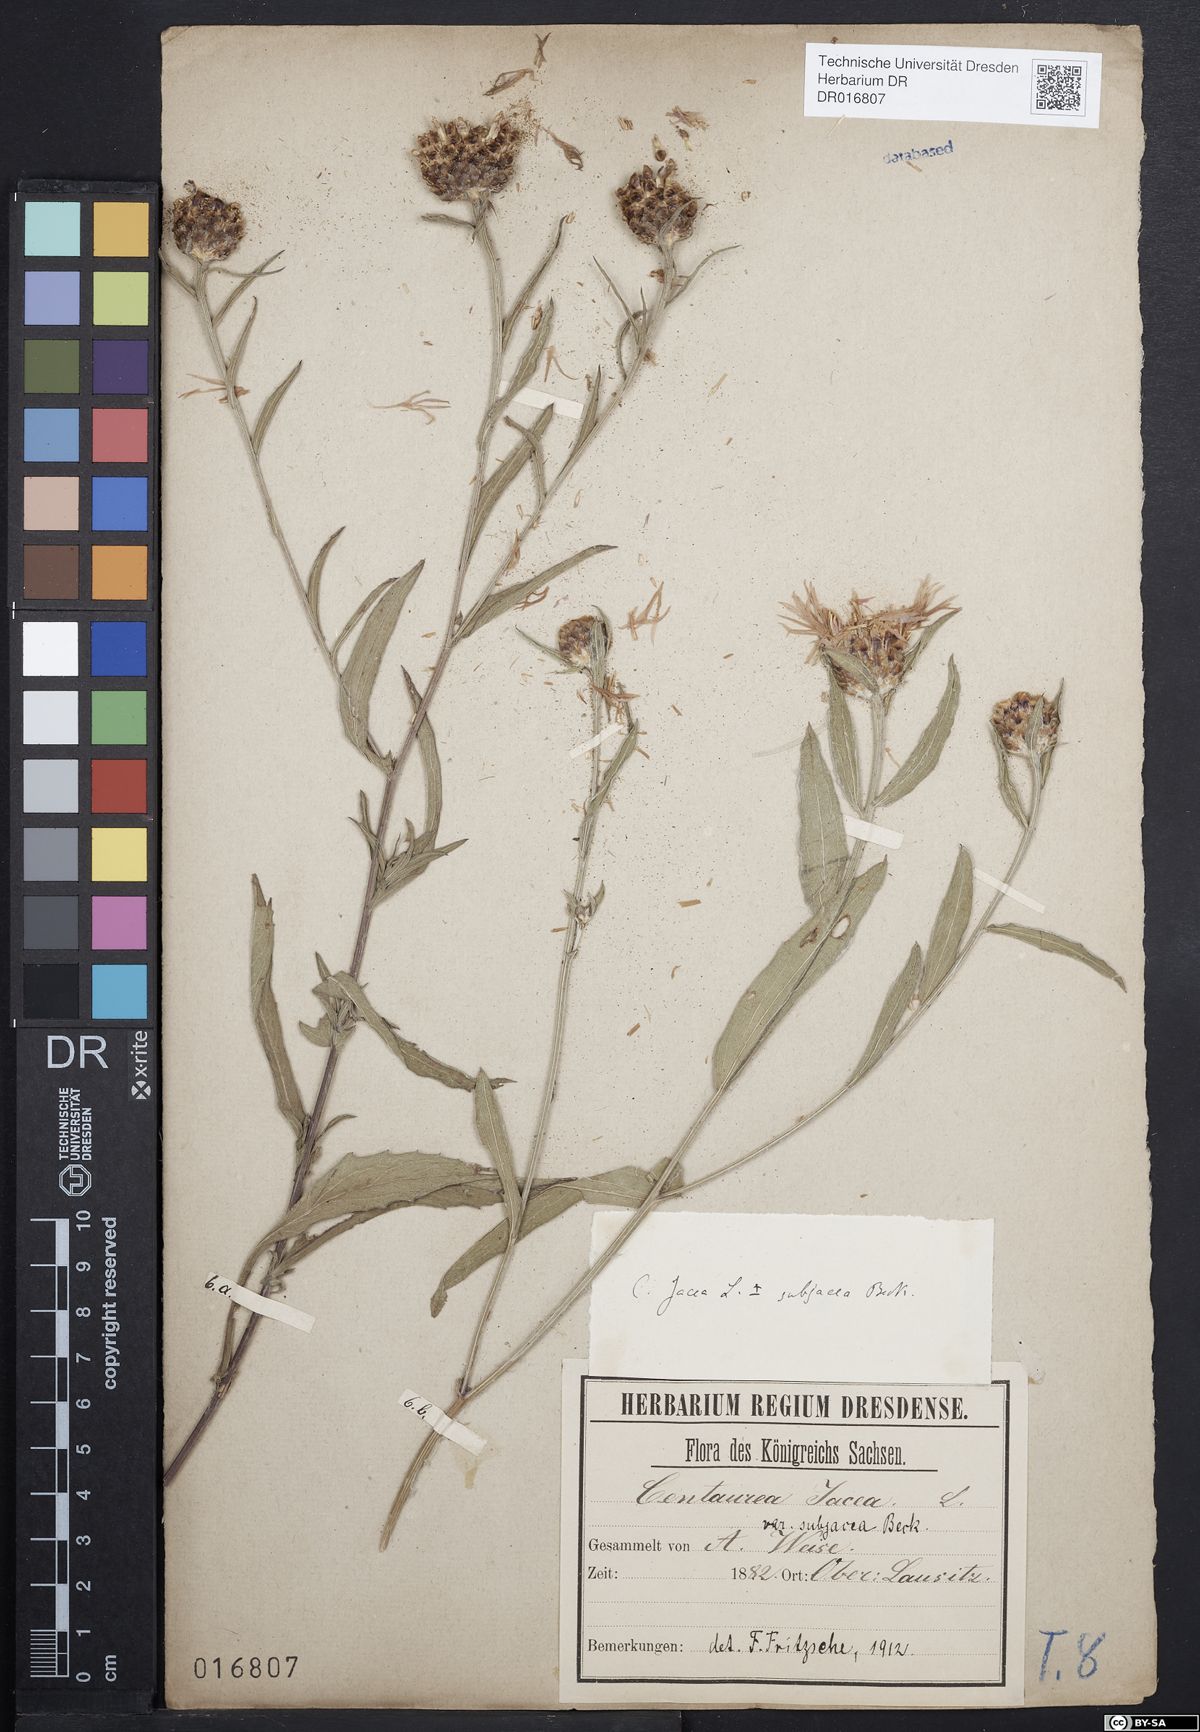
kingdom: Plantae
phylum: Tracheophyta
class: Magnoliopsida
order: Asterales
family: Asteraceae
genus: Centaurea
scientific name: Centaurea preissmannii
